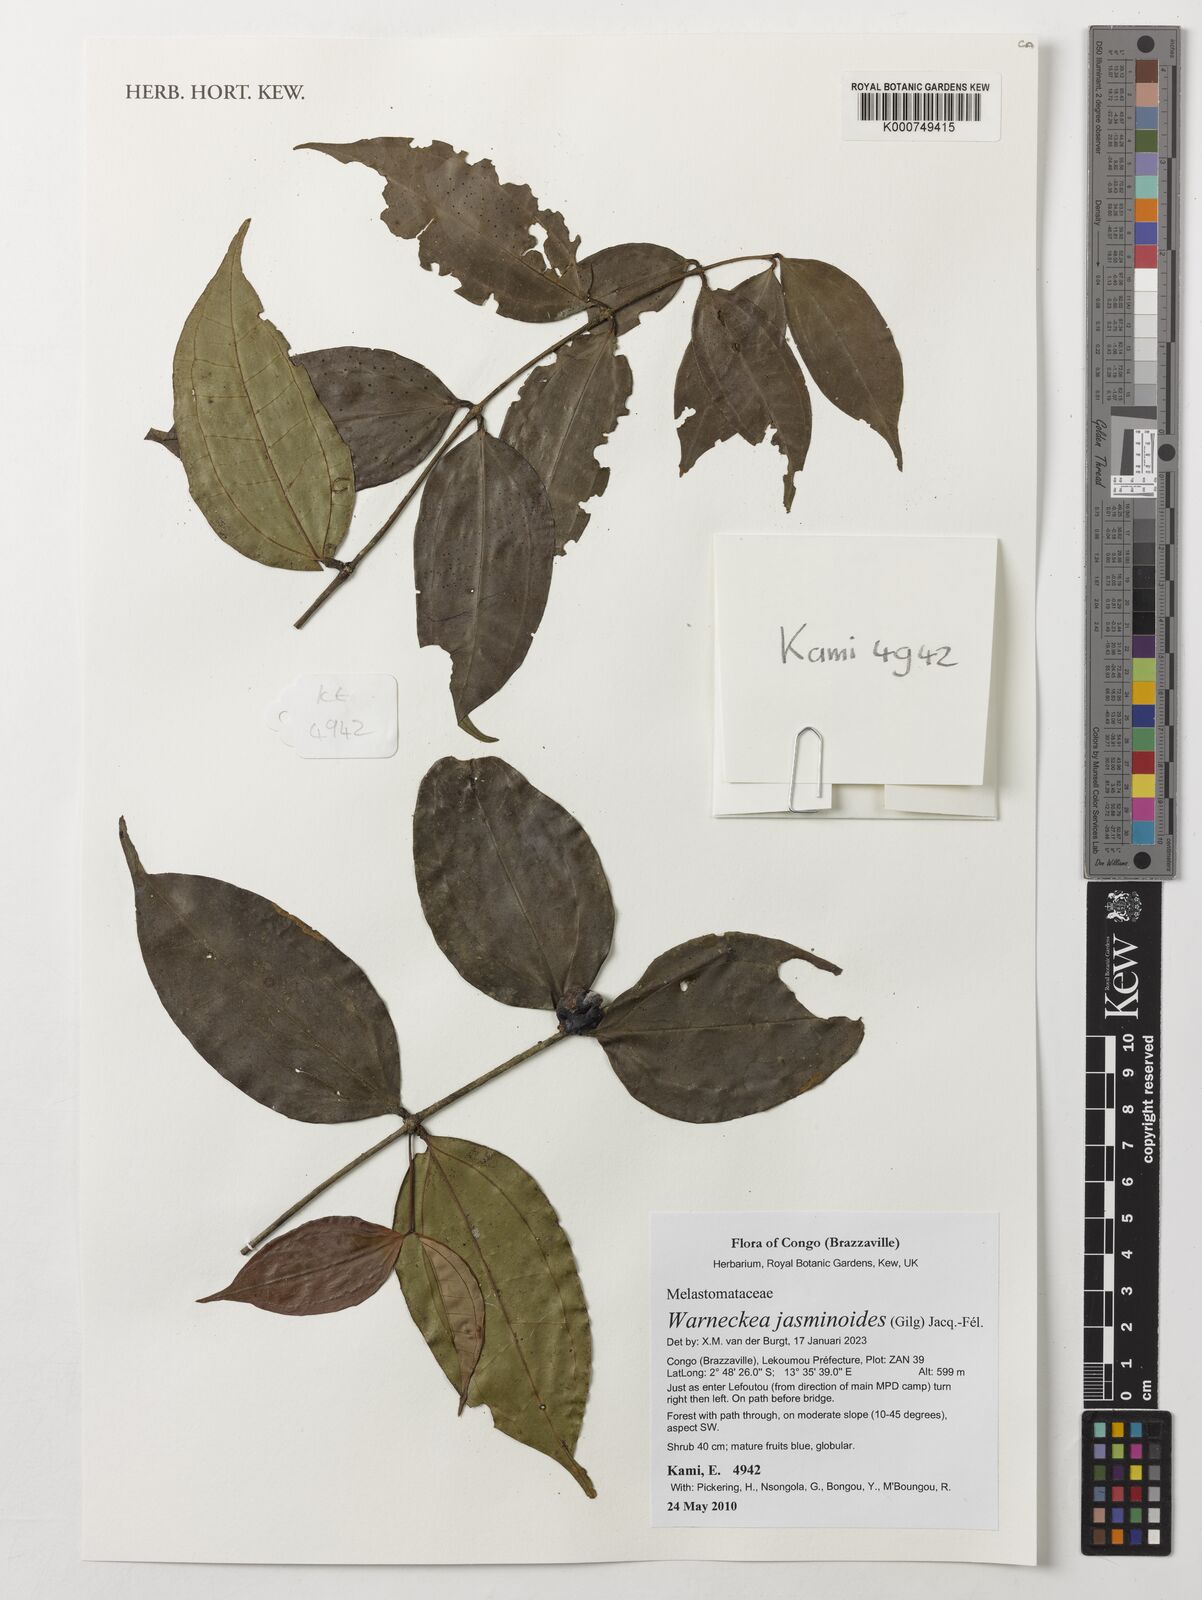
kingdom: Plantae
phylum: Tracheophyta
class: Magnoliopsida
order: Myrtales
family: Melastomataceae
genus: Warneckea
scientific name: Warneckea jasminoides
